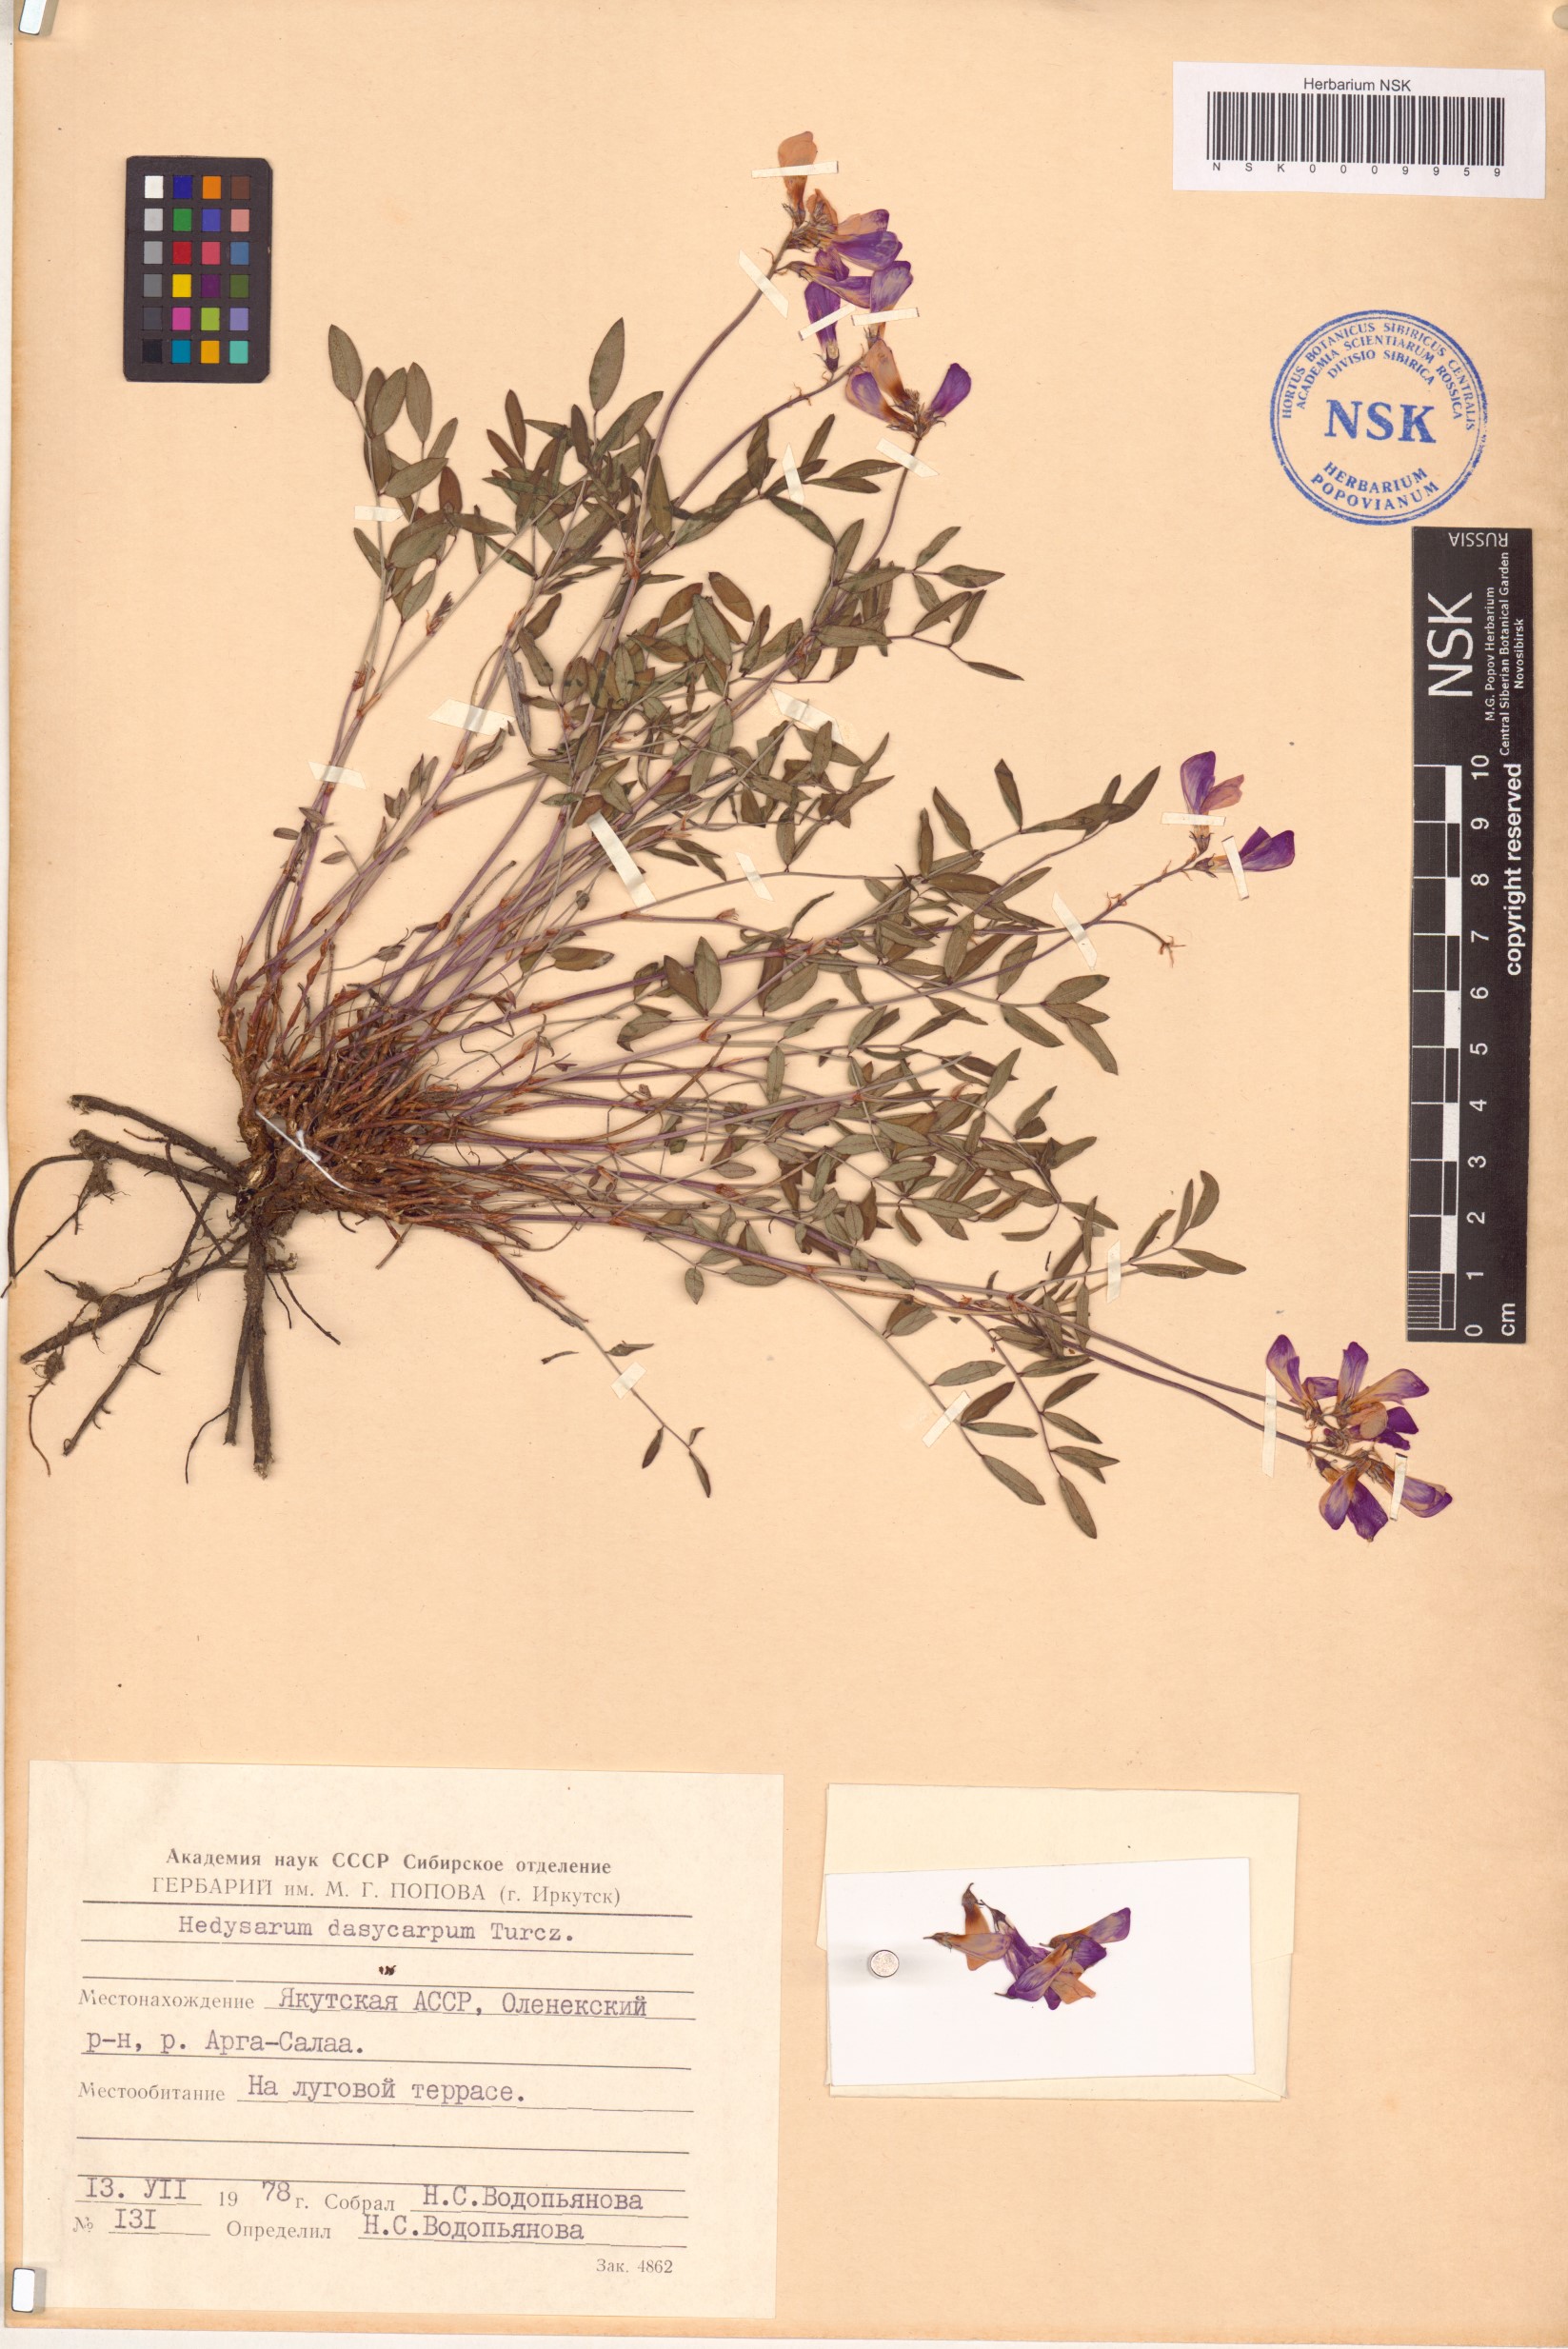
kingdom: Plantae
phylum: Tracheophyta
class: Magnoliopsida
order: Fabales
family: Fabaceae
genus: Hedysarum
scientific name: Hedysarum dasycarpum
